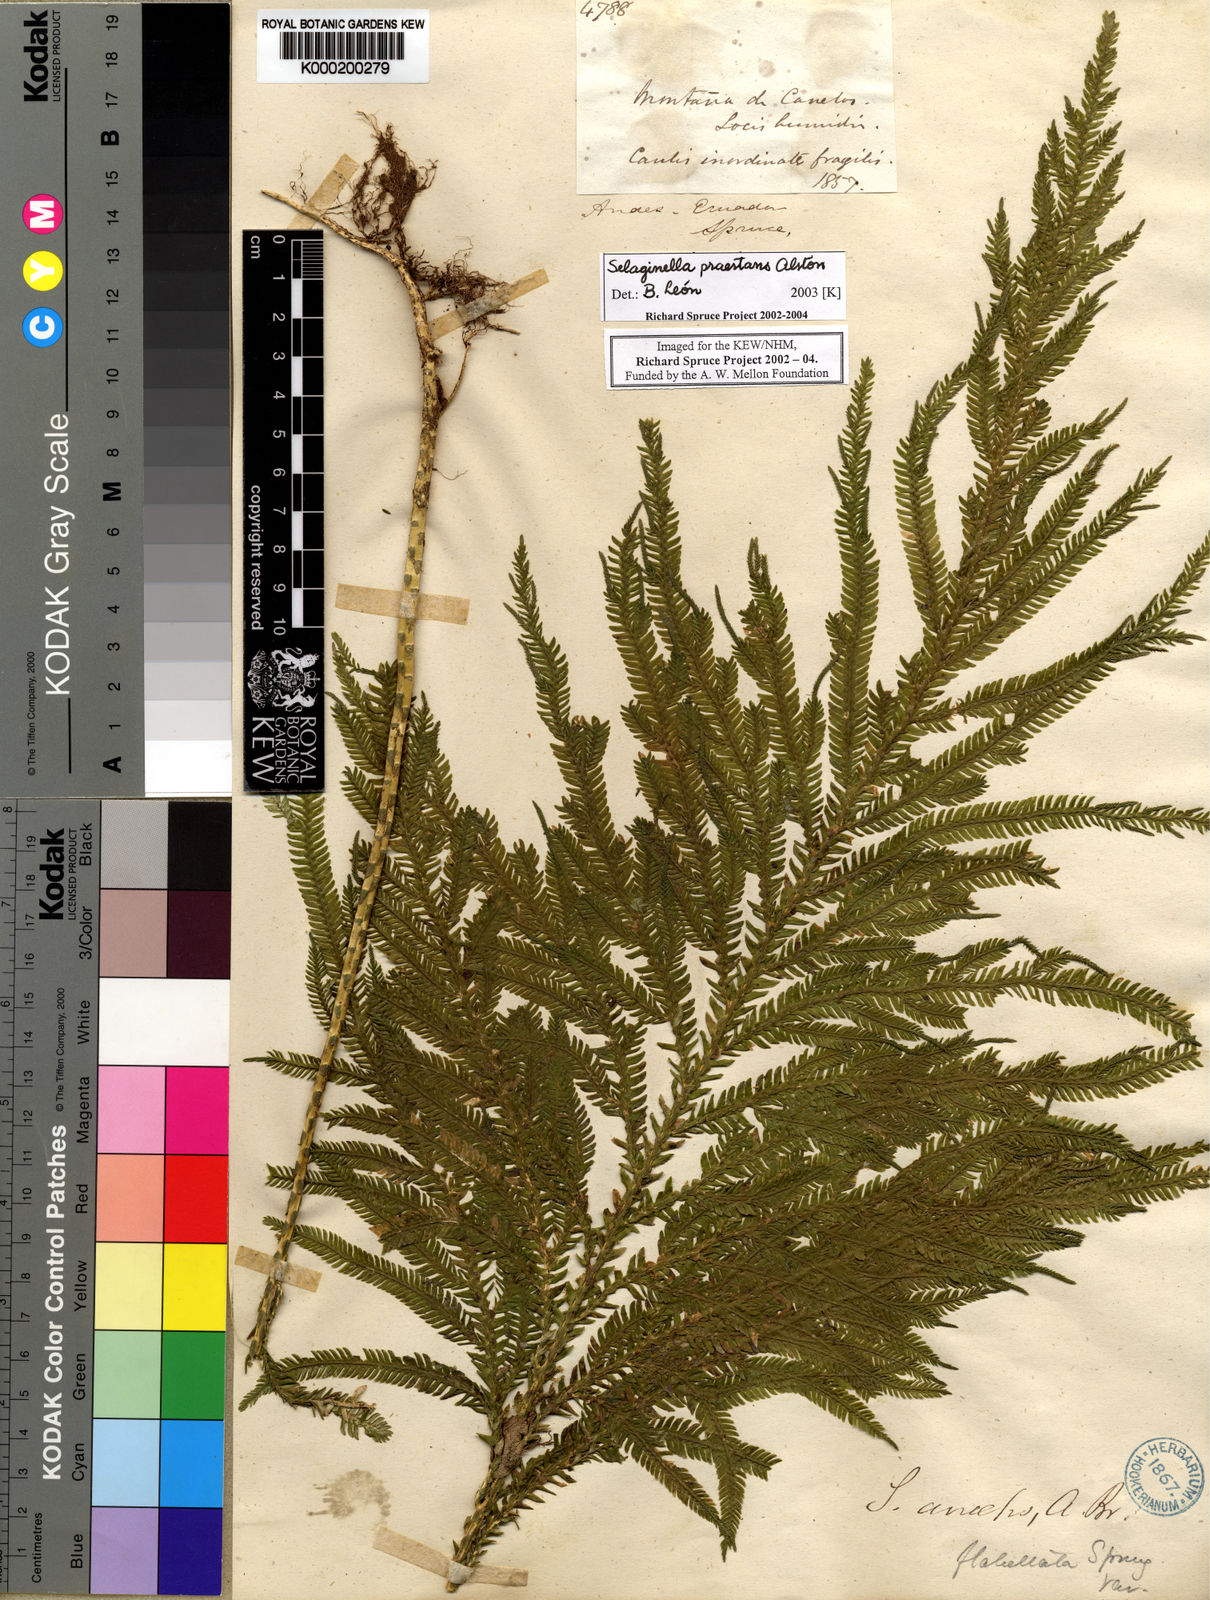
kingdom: Plantae
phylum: Tracheophyta
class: Lycopodiopsida
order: Selaginellales
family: Selaginellaceae
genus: Selaginella
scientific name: Selaginella praestans
